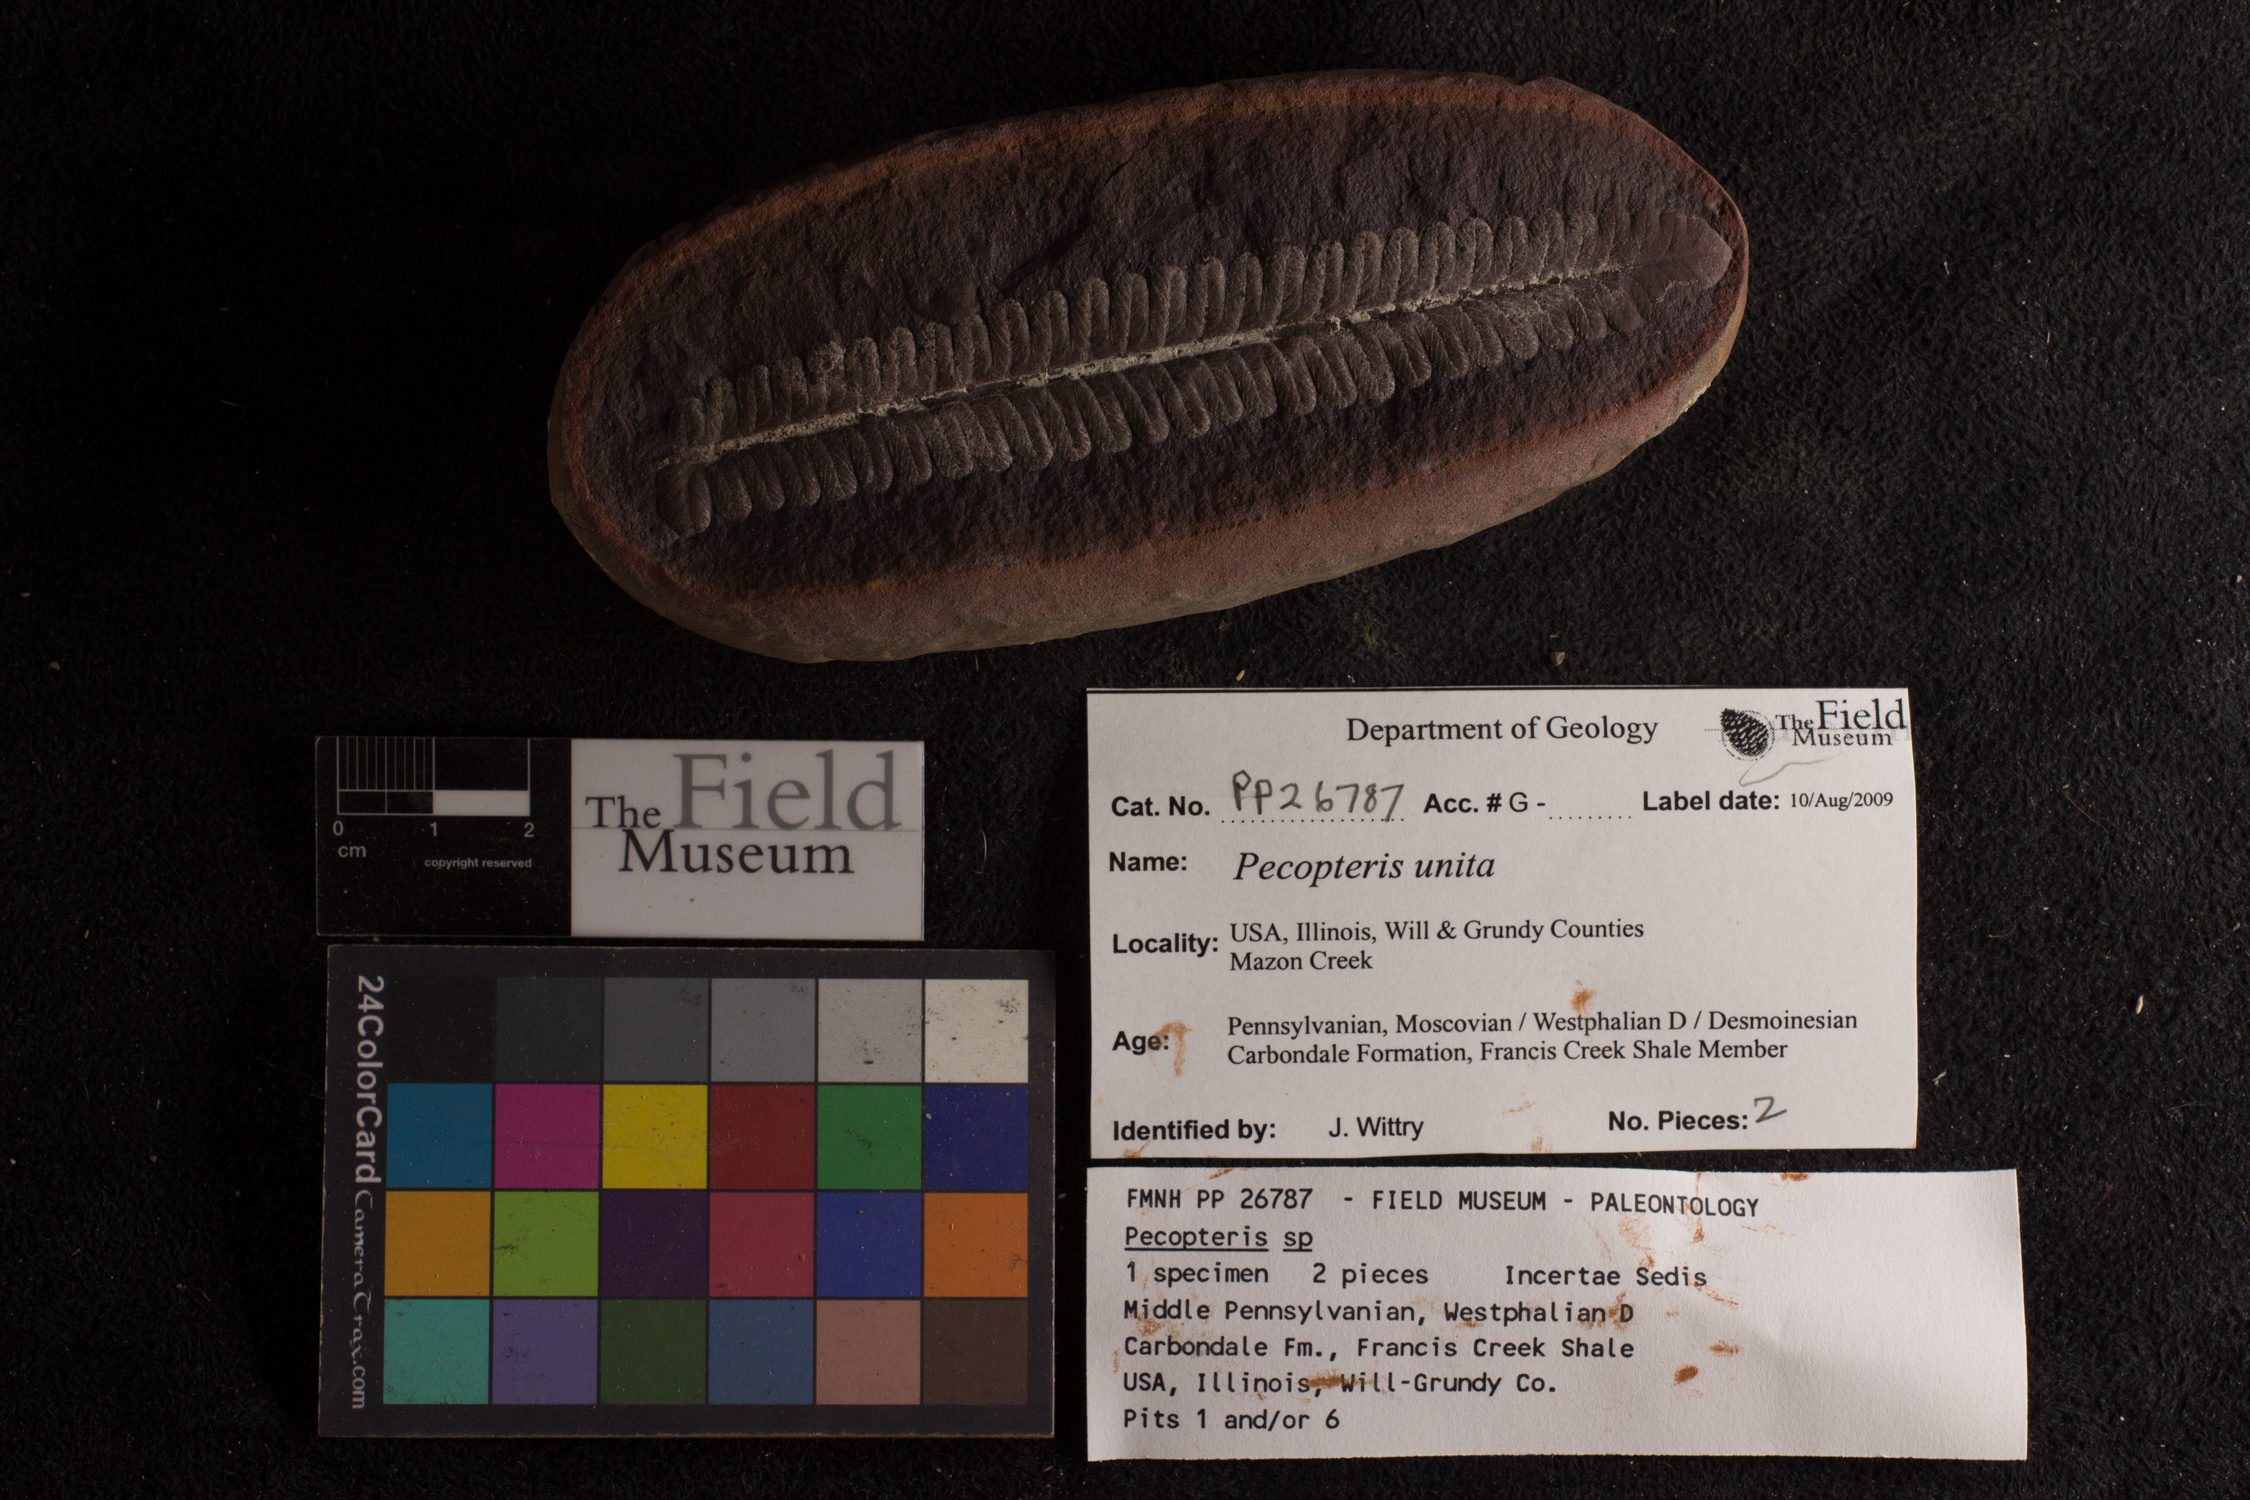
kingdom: Plantae
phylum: Tracheophyta
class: Polypodiopsida
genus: Diplazites
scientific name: Diplazites
